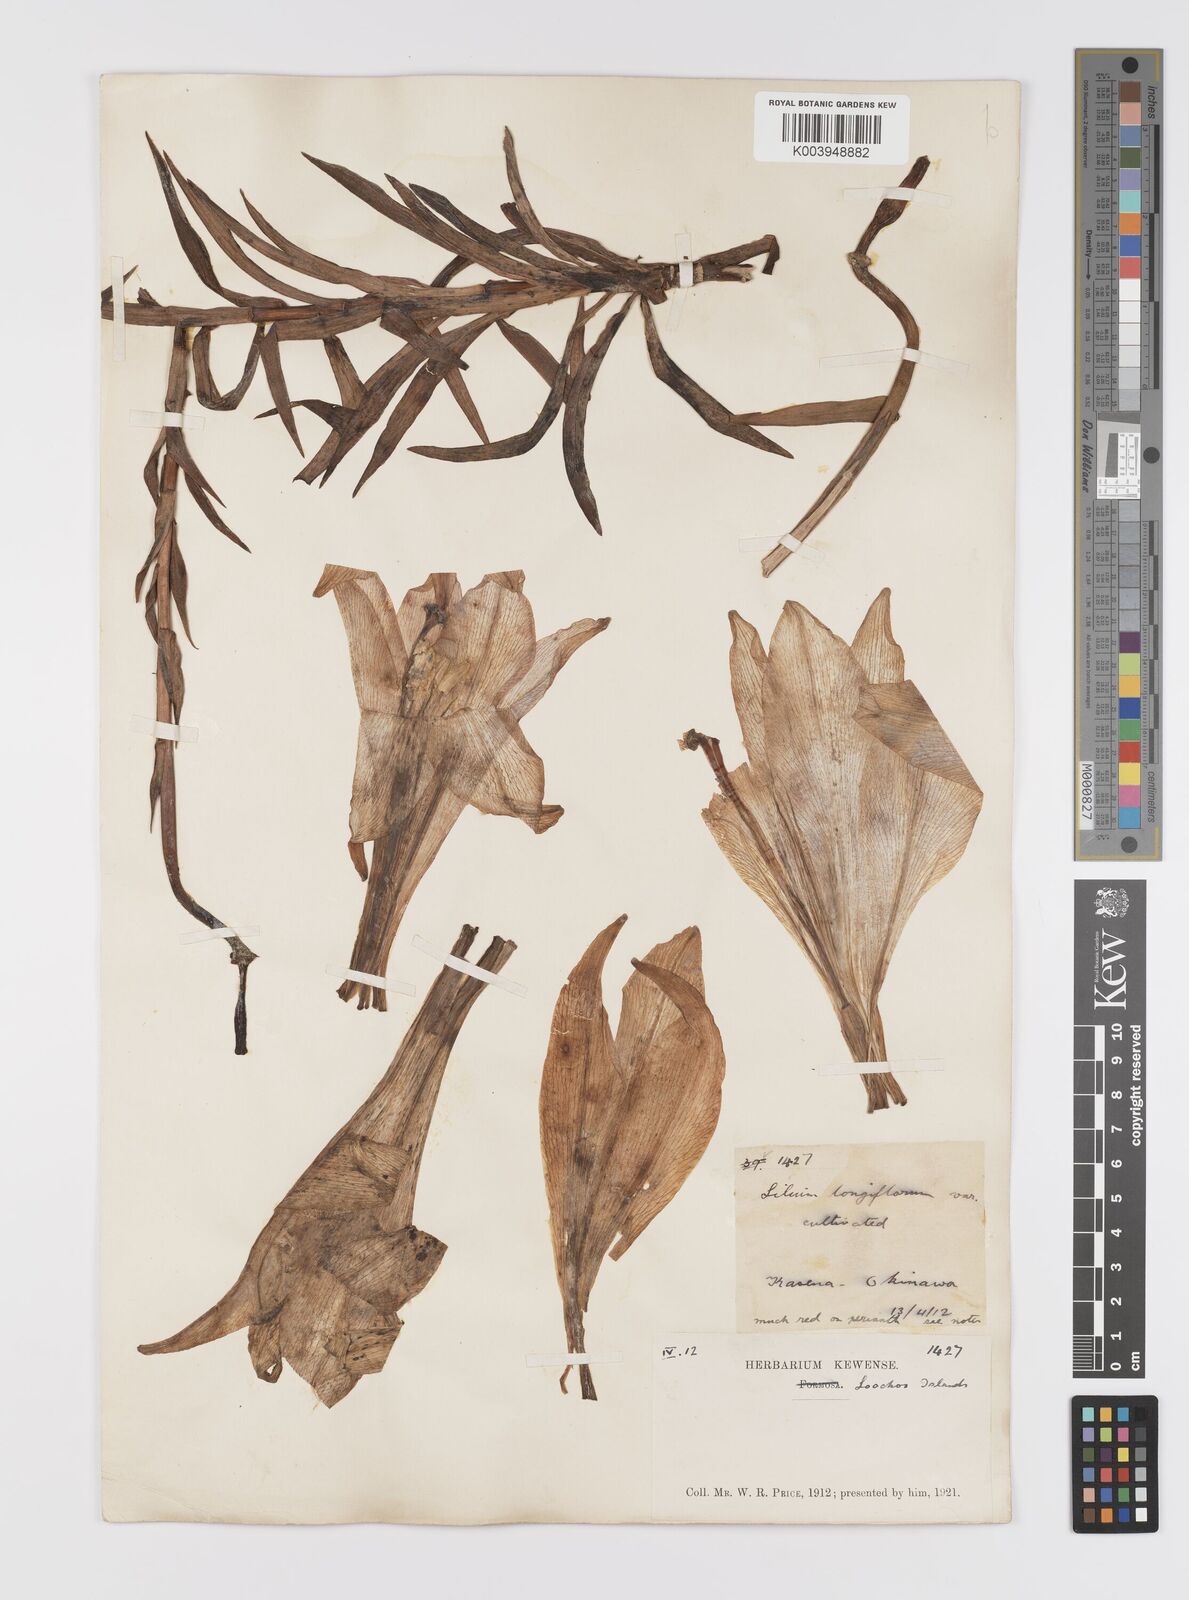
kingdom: Plantae
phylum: Tracheophyta
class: Liliopsida
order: Liliales
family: Liliaceae
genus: Lilium
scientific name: Lilium longiflorum
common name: Easter lily
